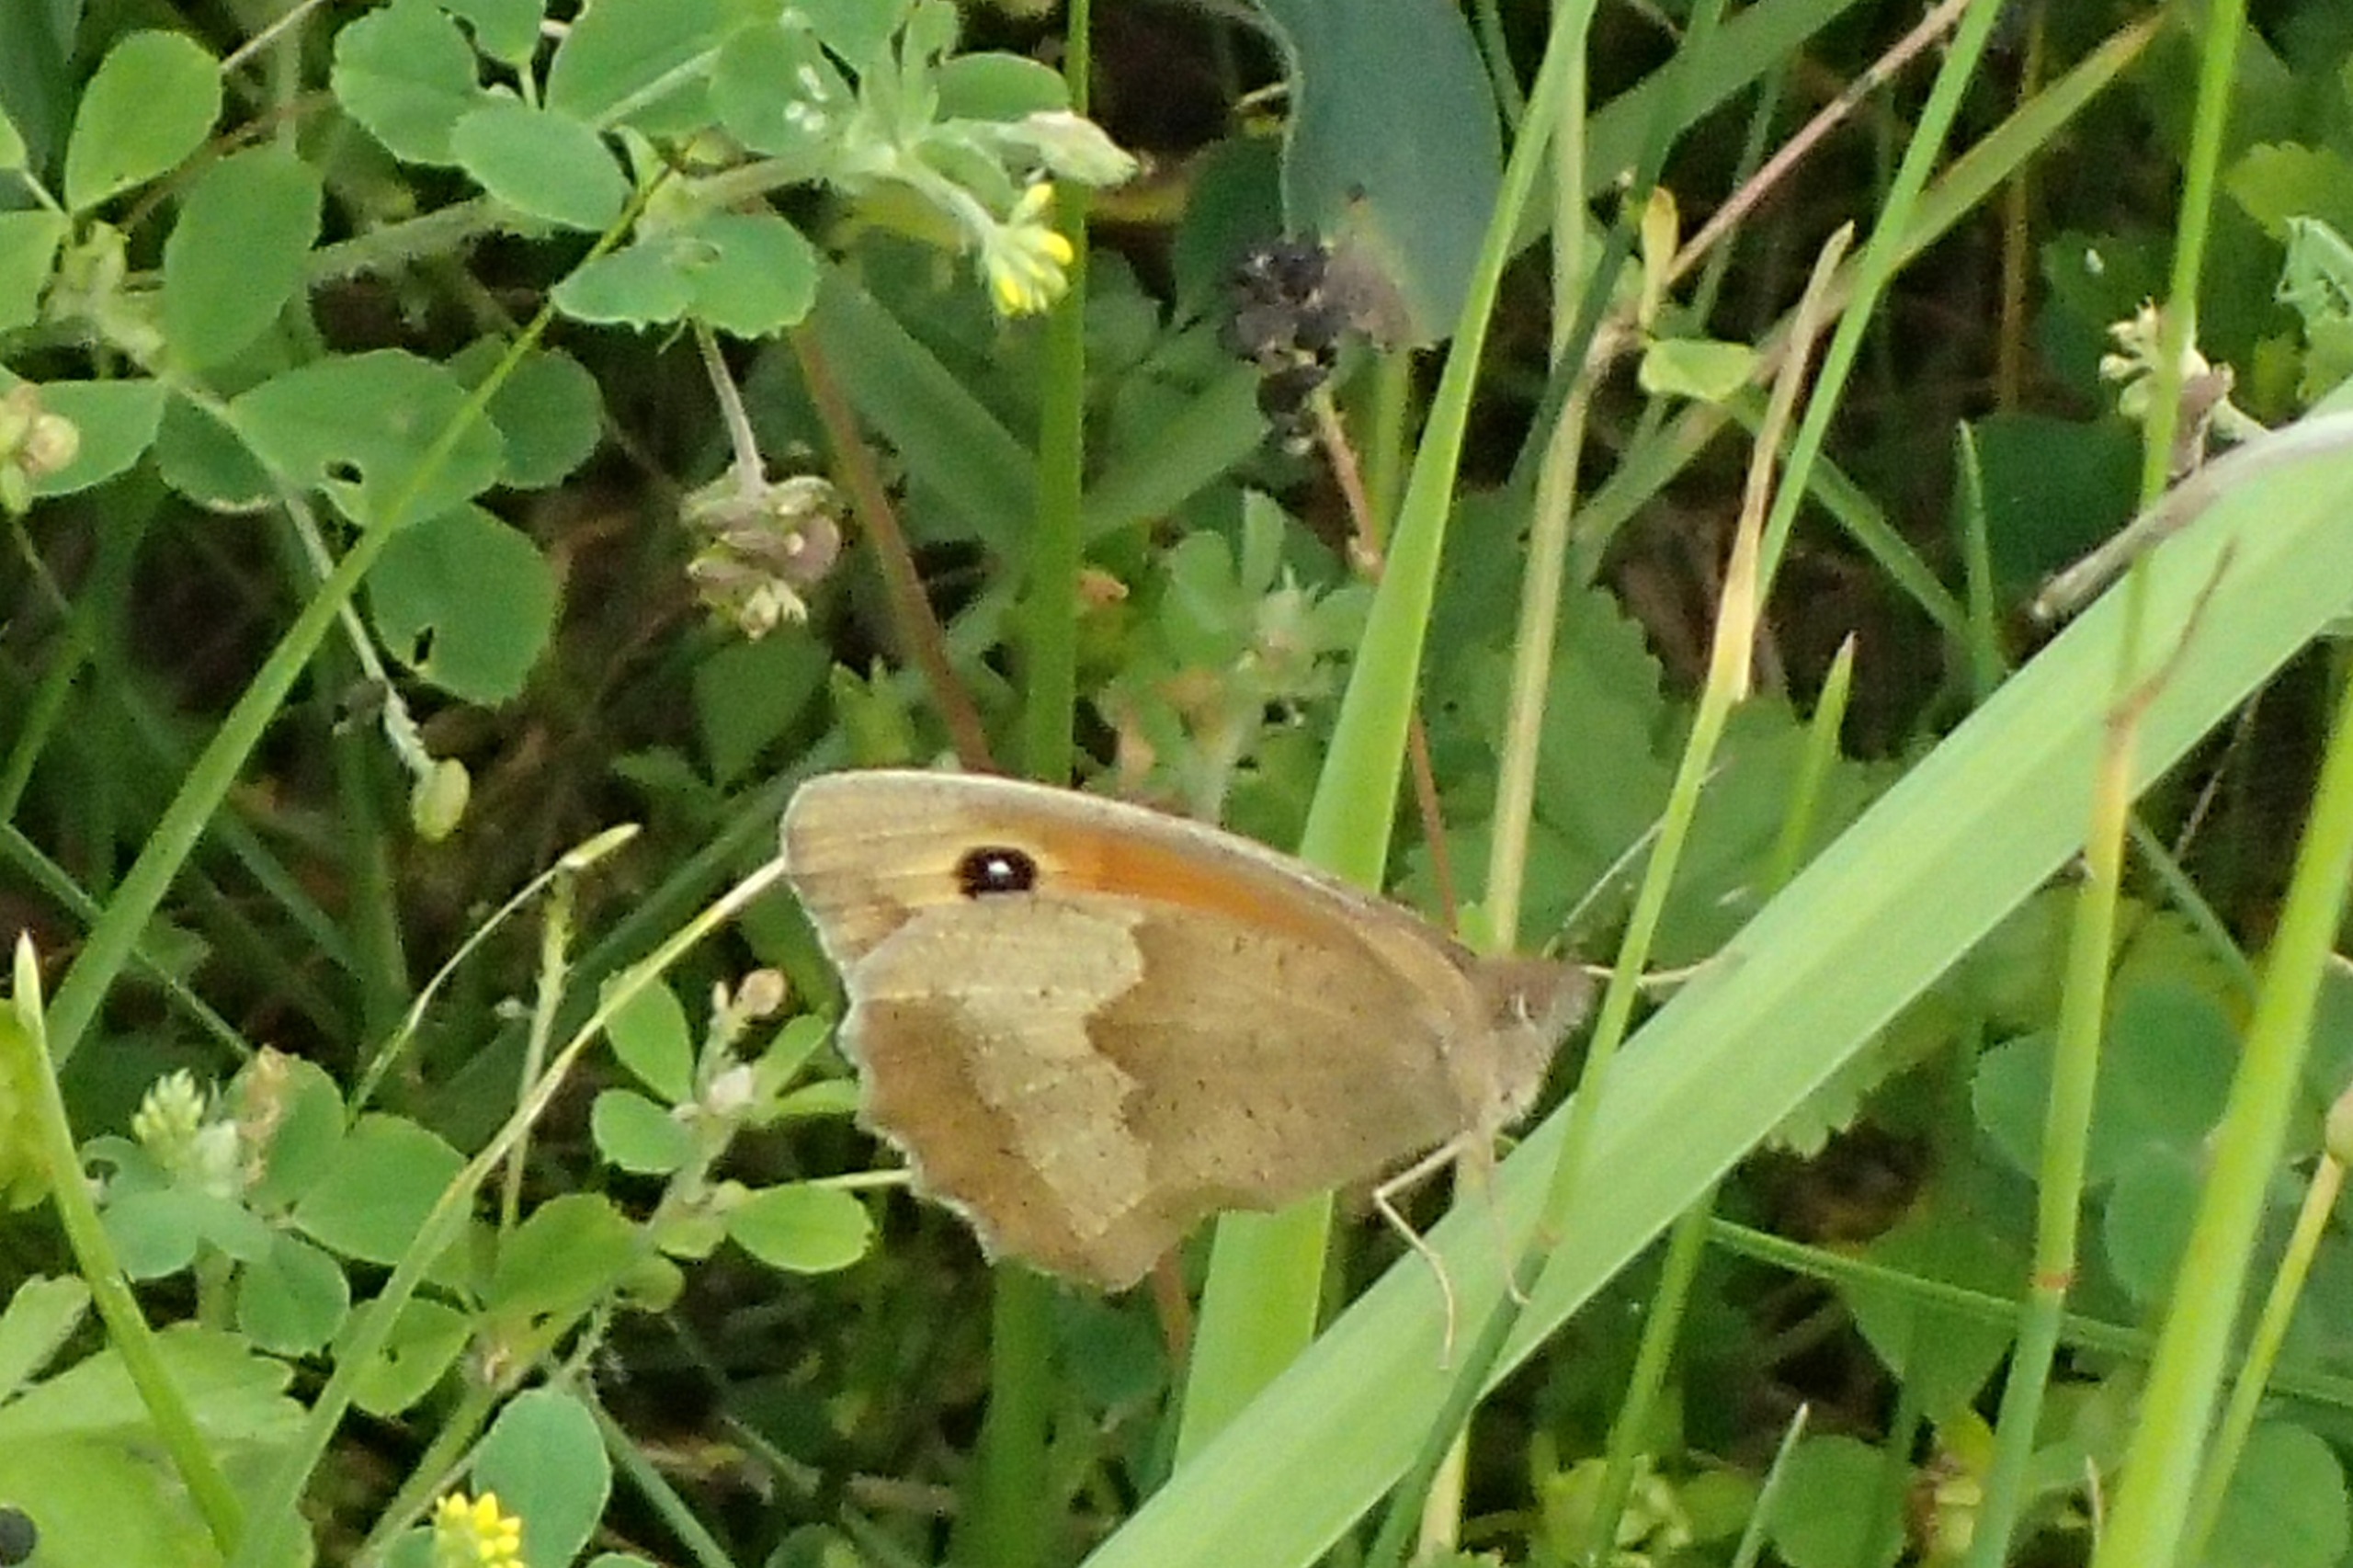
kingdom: Animalia
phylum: Arthropoda
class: Insecta
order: Lepidoptera
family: Nymphalidae
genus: Maniola
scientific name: Maniola jurtina
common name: Græsrandøje
